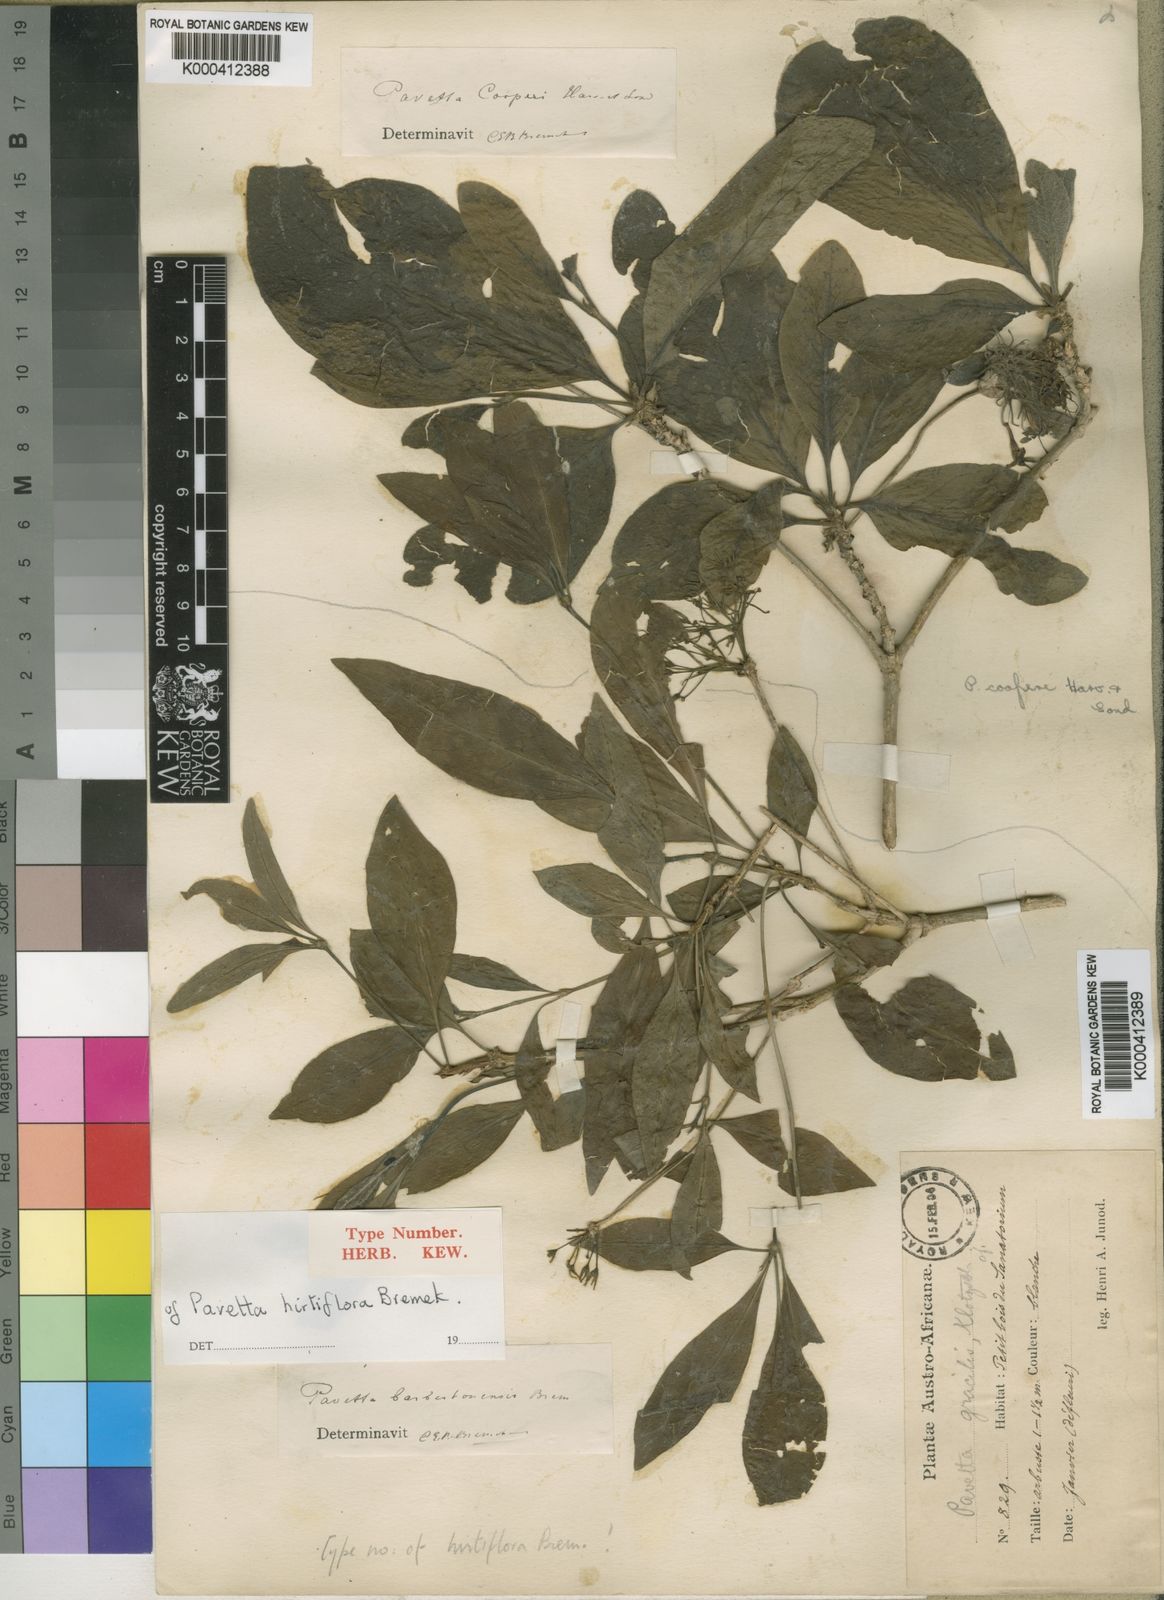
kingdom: Plantae
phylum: Tracheophyta
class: Magnoliopsida
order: Gentianales
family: Rubiaceae
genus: Pavetta
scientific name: Pavetta trichardtensis
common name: Soutpansberg brides-bush
